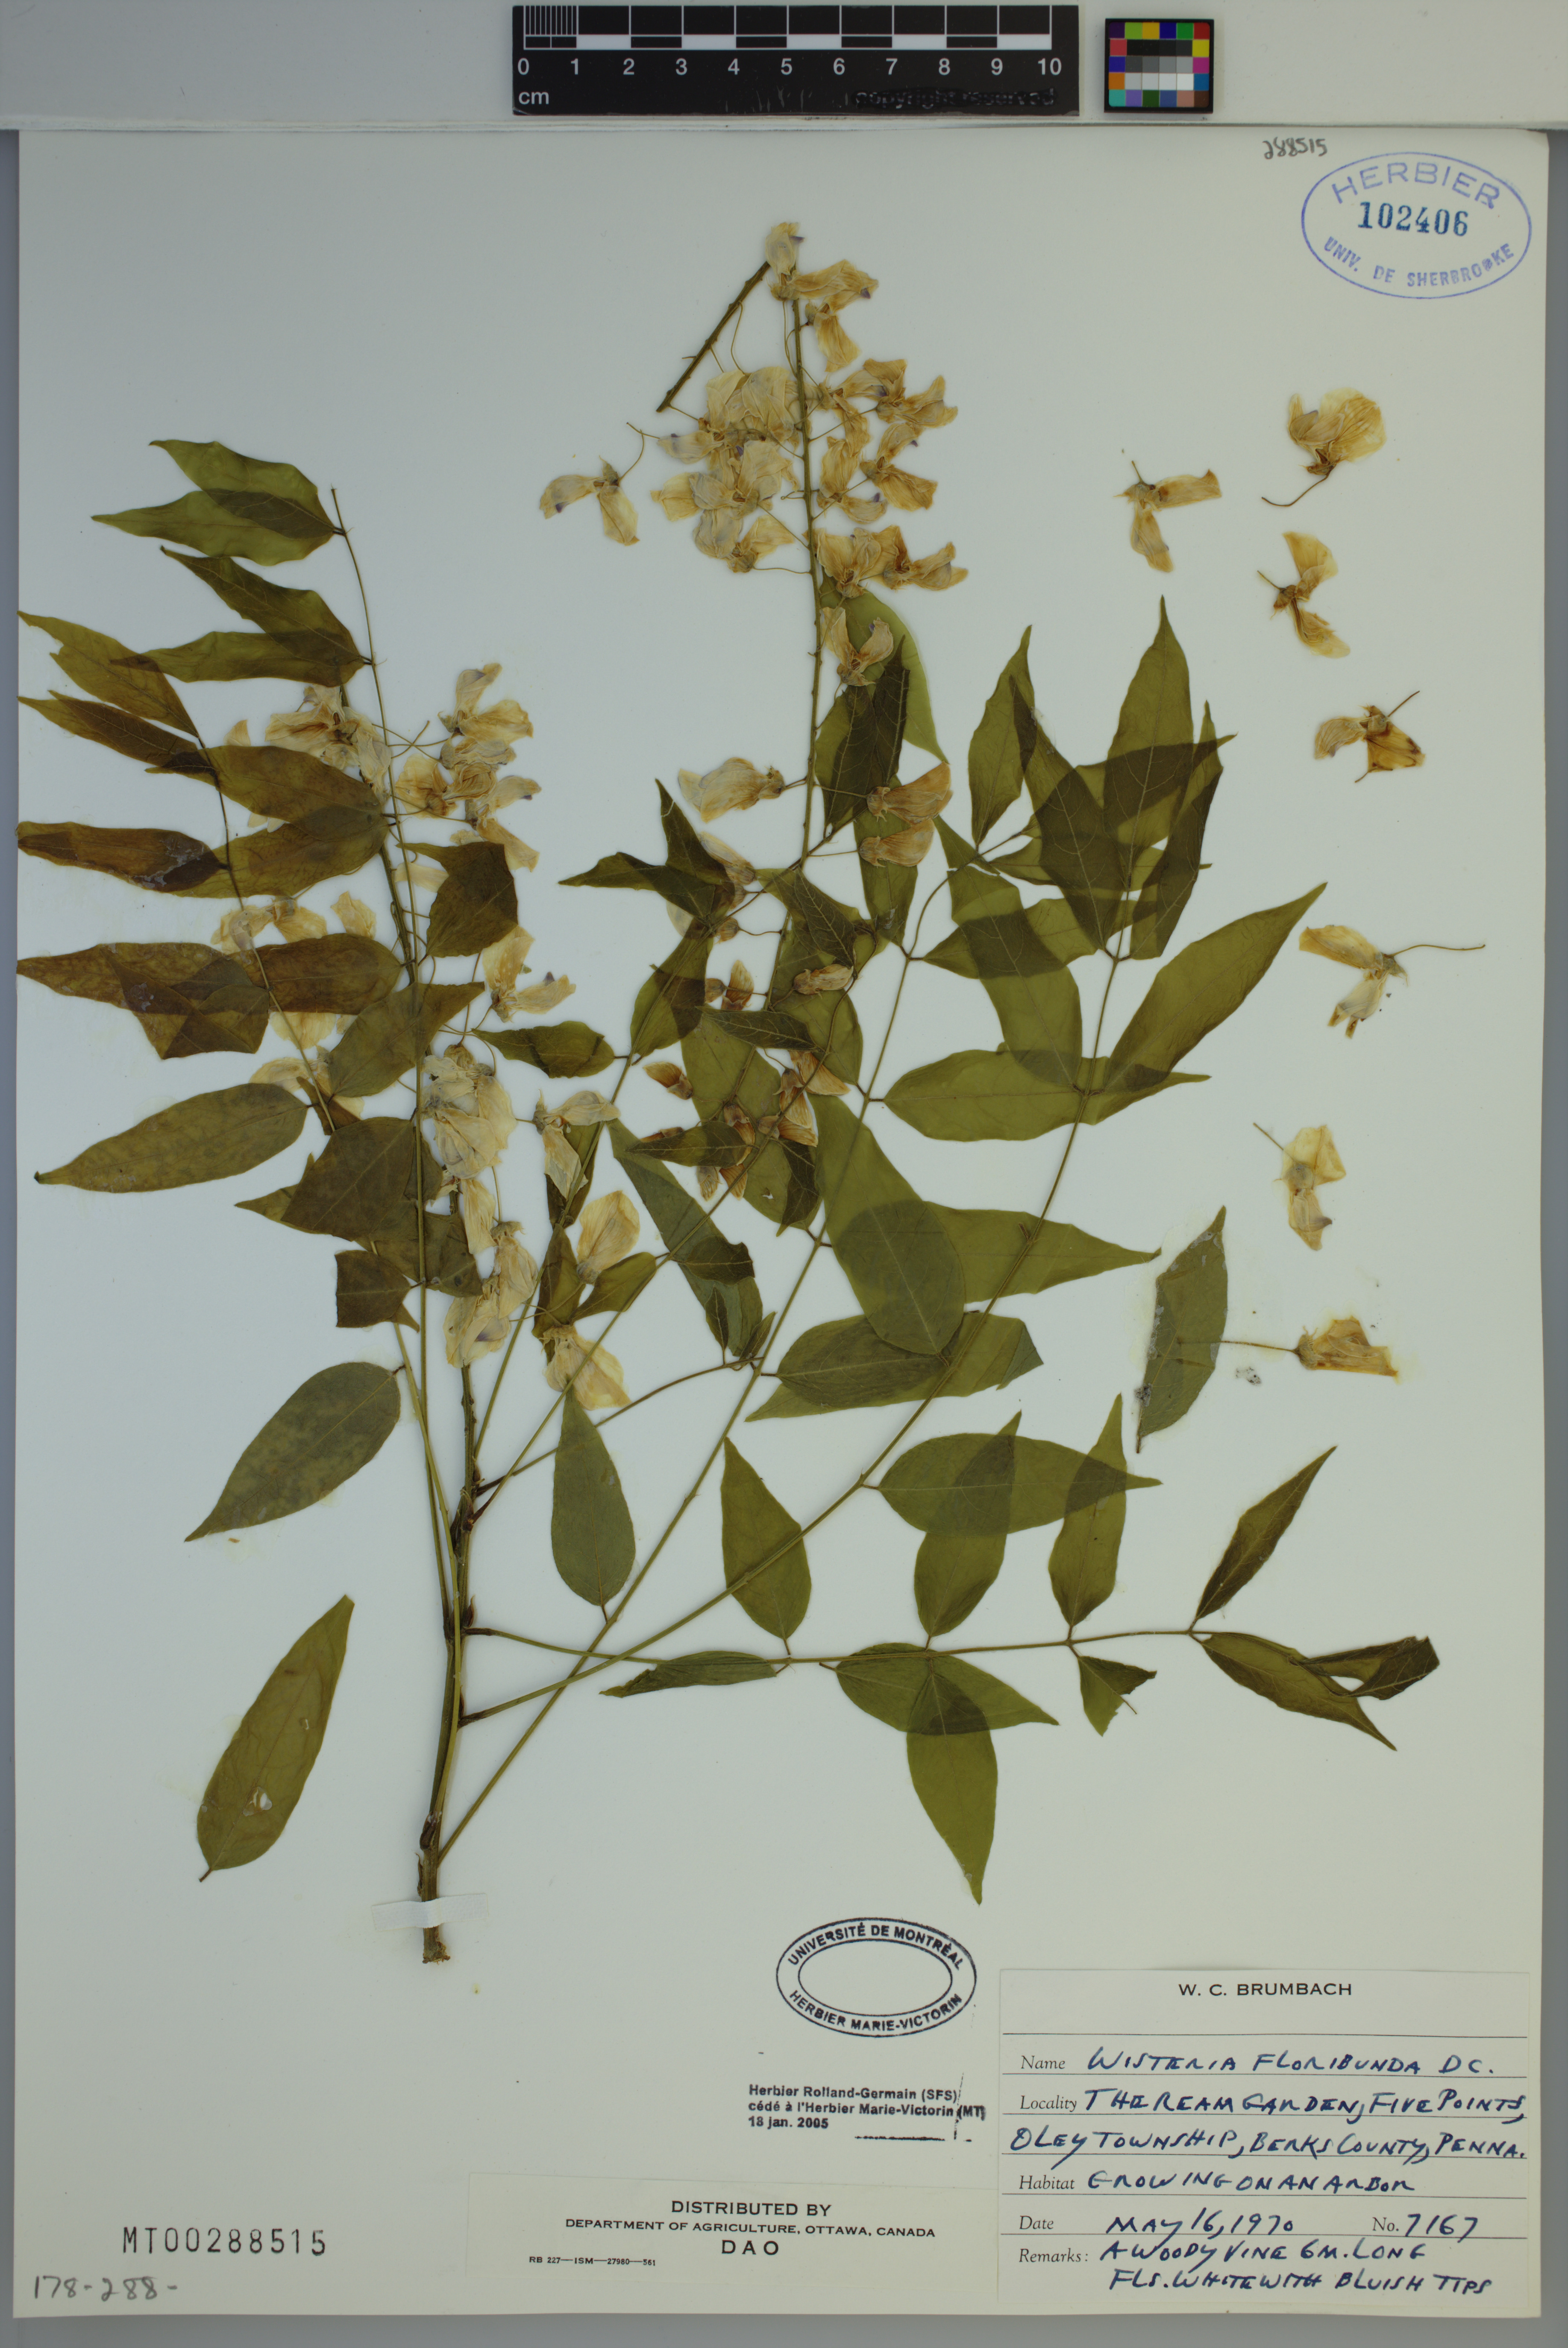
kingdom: Plantae
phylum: Tracheophyta
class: Magnoliopsida
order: Fabales
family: Fabaceae
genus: Wisteria
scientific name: Wisteria floribunda
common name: Japanese wisteria
